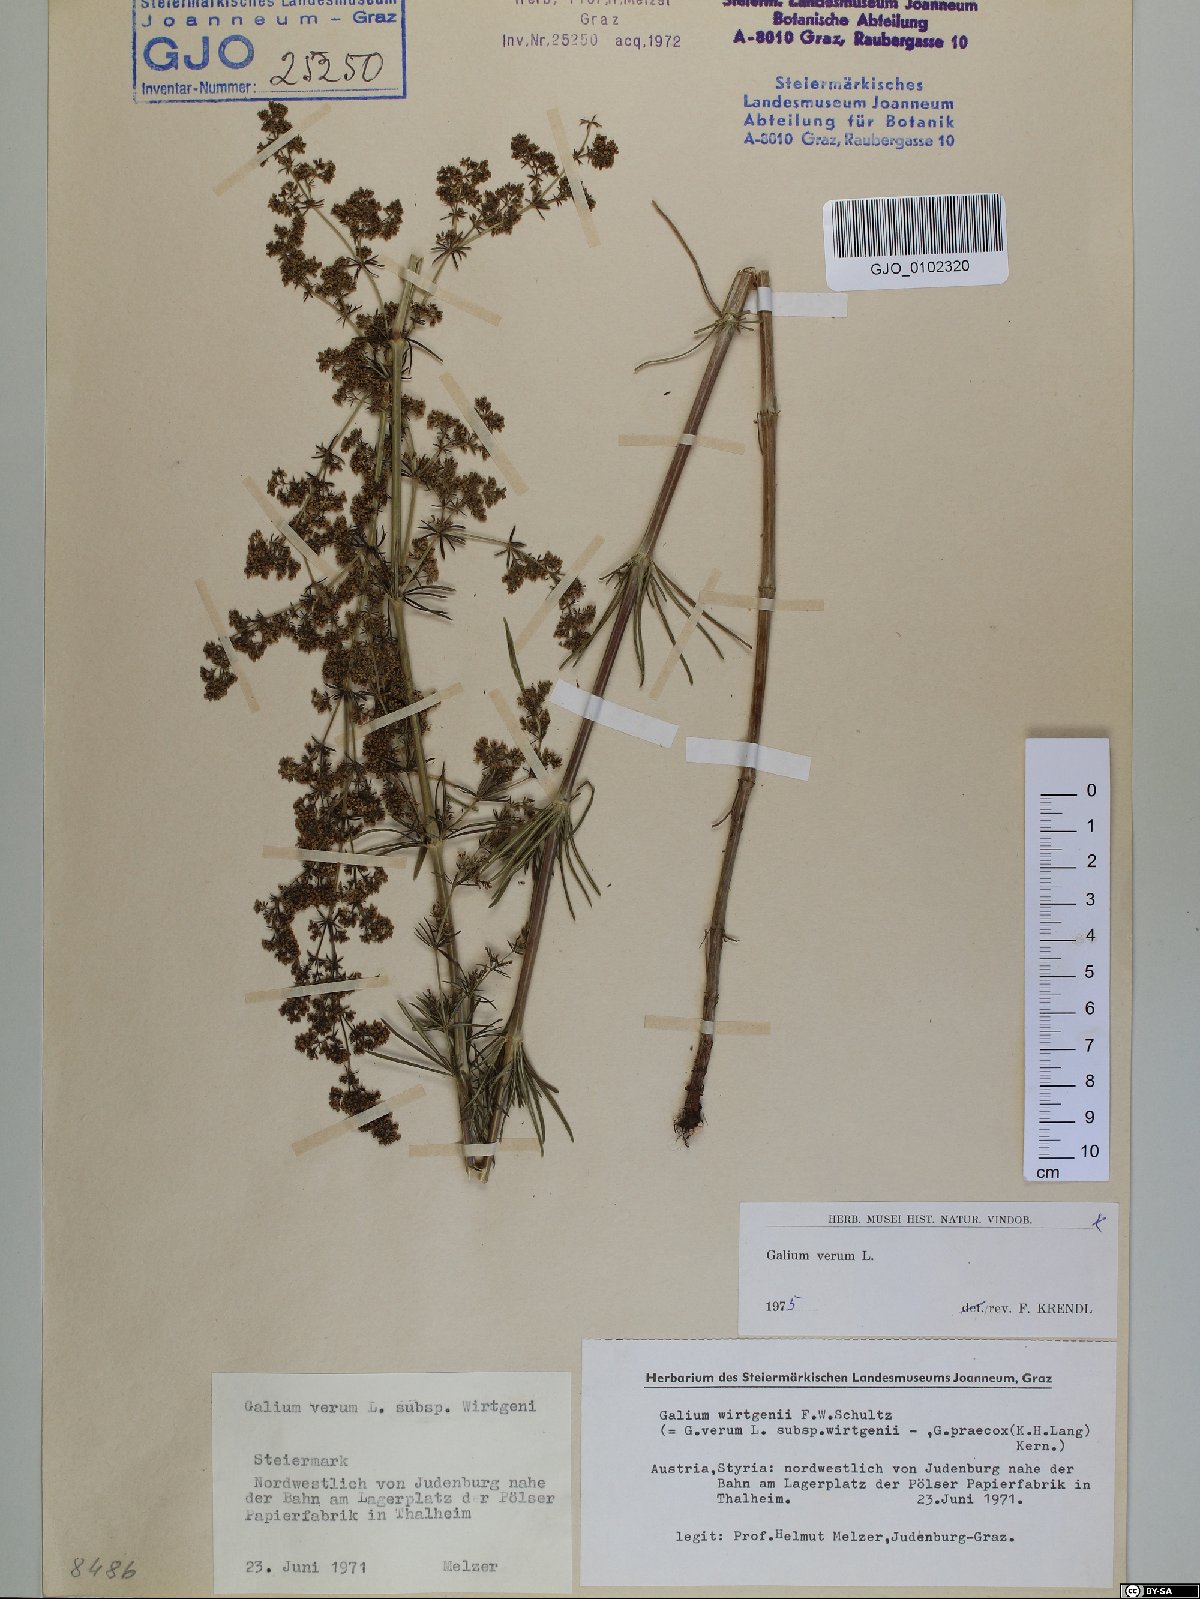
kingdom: Plantae
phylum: Tracheophyta
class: Magnoliopsida
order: Gentianales
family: Rubiaceae
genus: Galium
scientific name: Galium verum
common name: Lady's bedstraw
